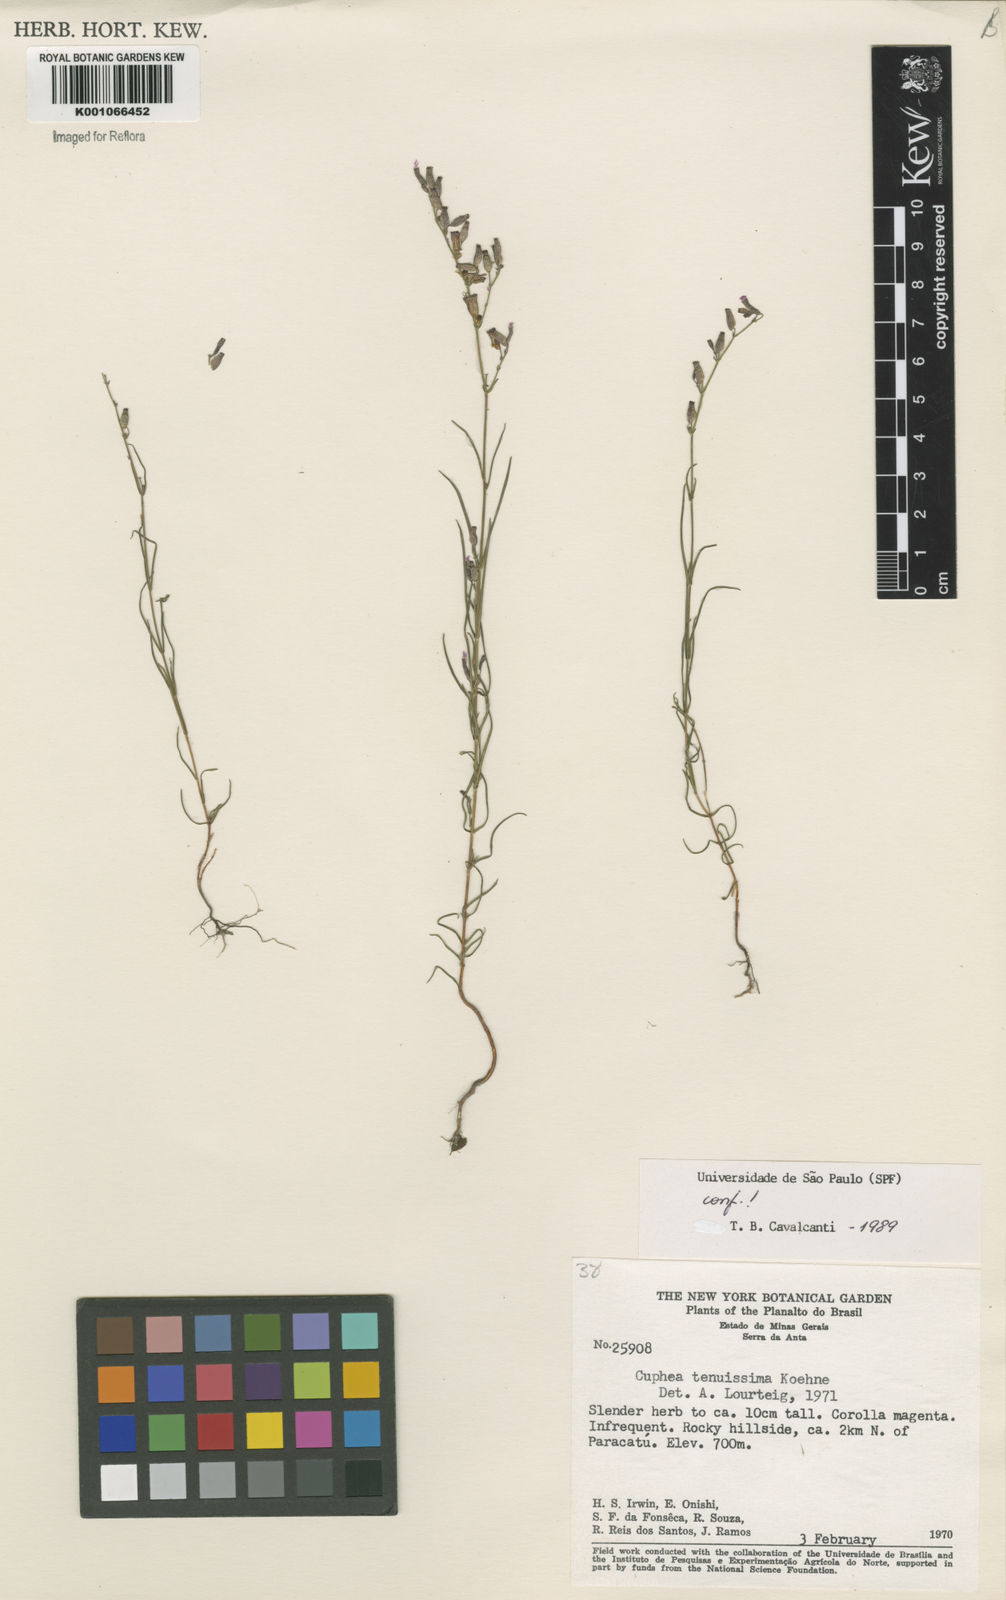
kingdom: Plantae
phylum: Tracheophyta
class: Magnoliopsida
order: Myrtales
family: Lythraceae
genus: Cuphea
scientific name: Cuphea tenuissima
